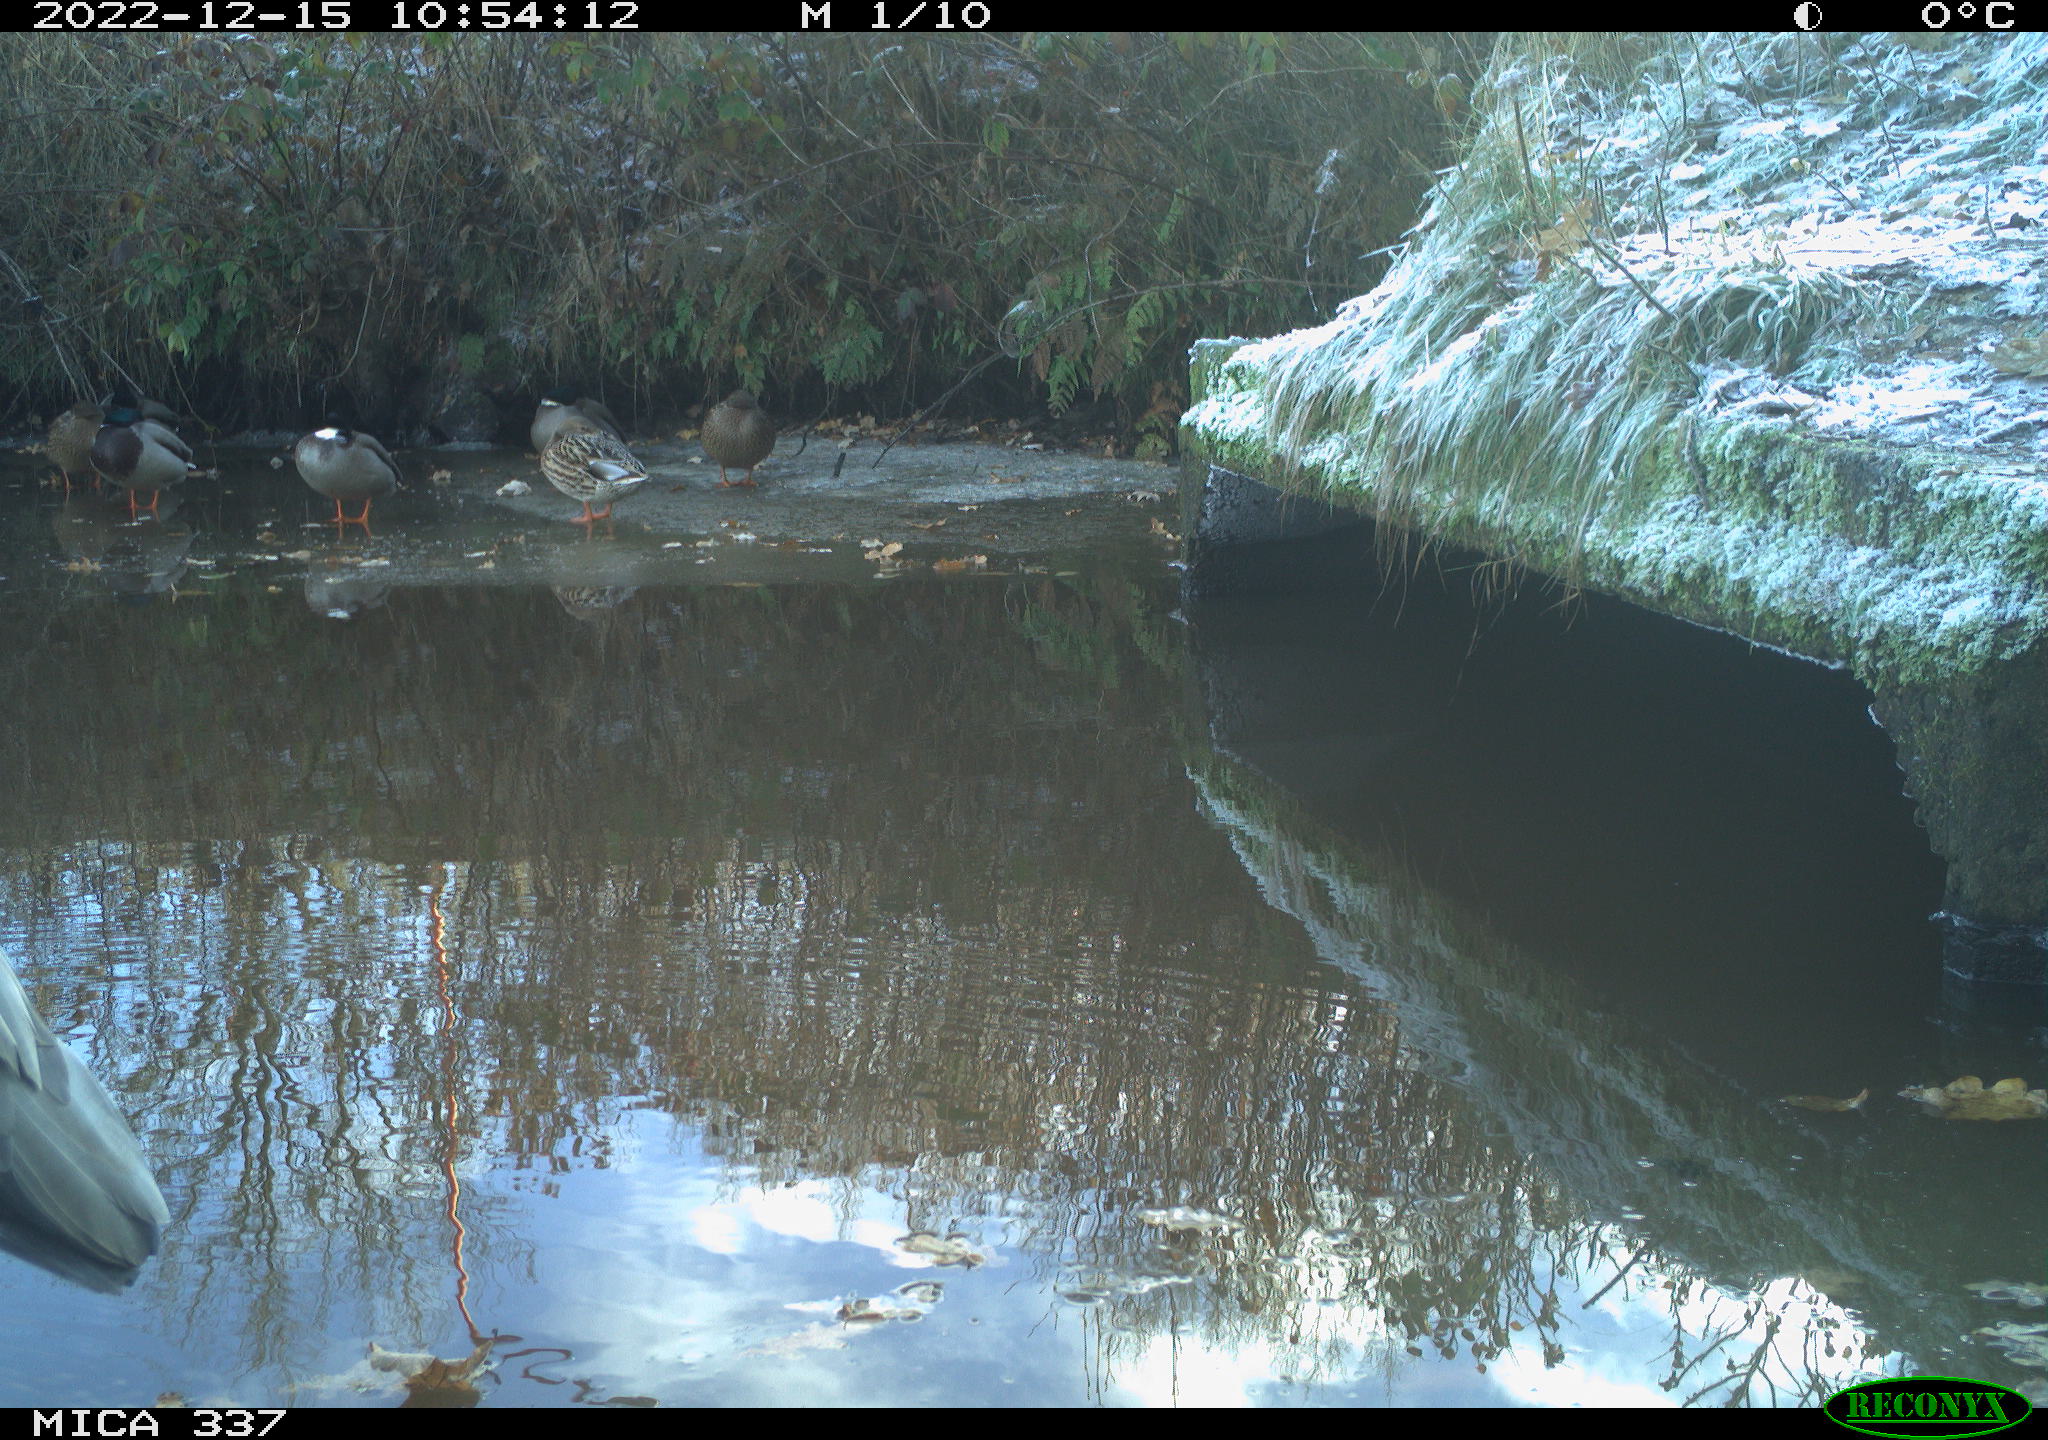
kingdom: Animalia
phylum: Chordata
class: Aves
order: Anseriformes
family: Anatidae
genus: Anas
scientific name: Anas
